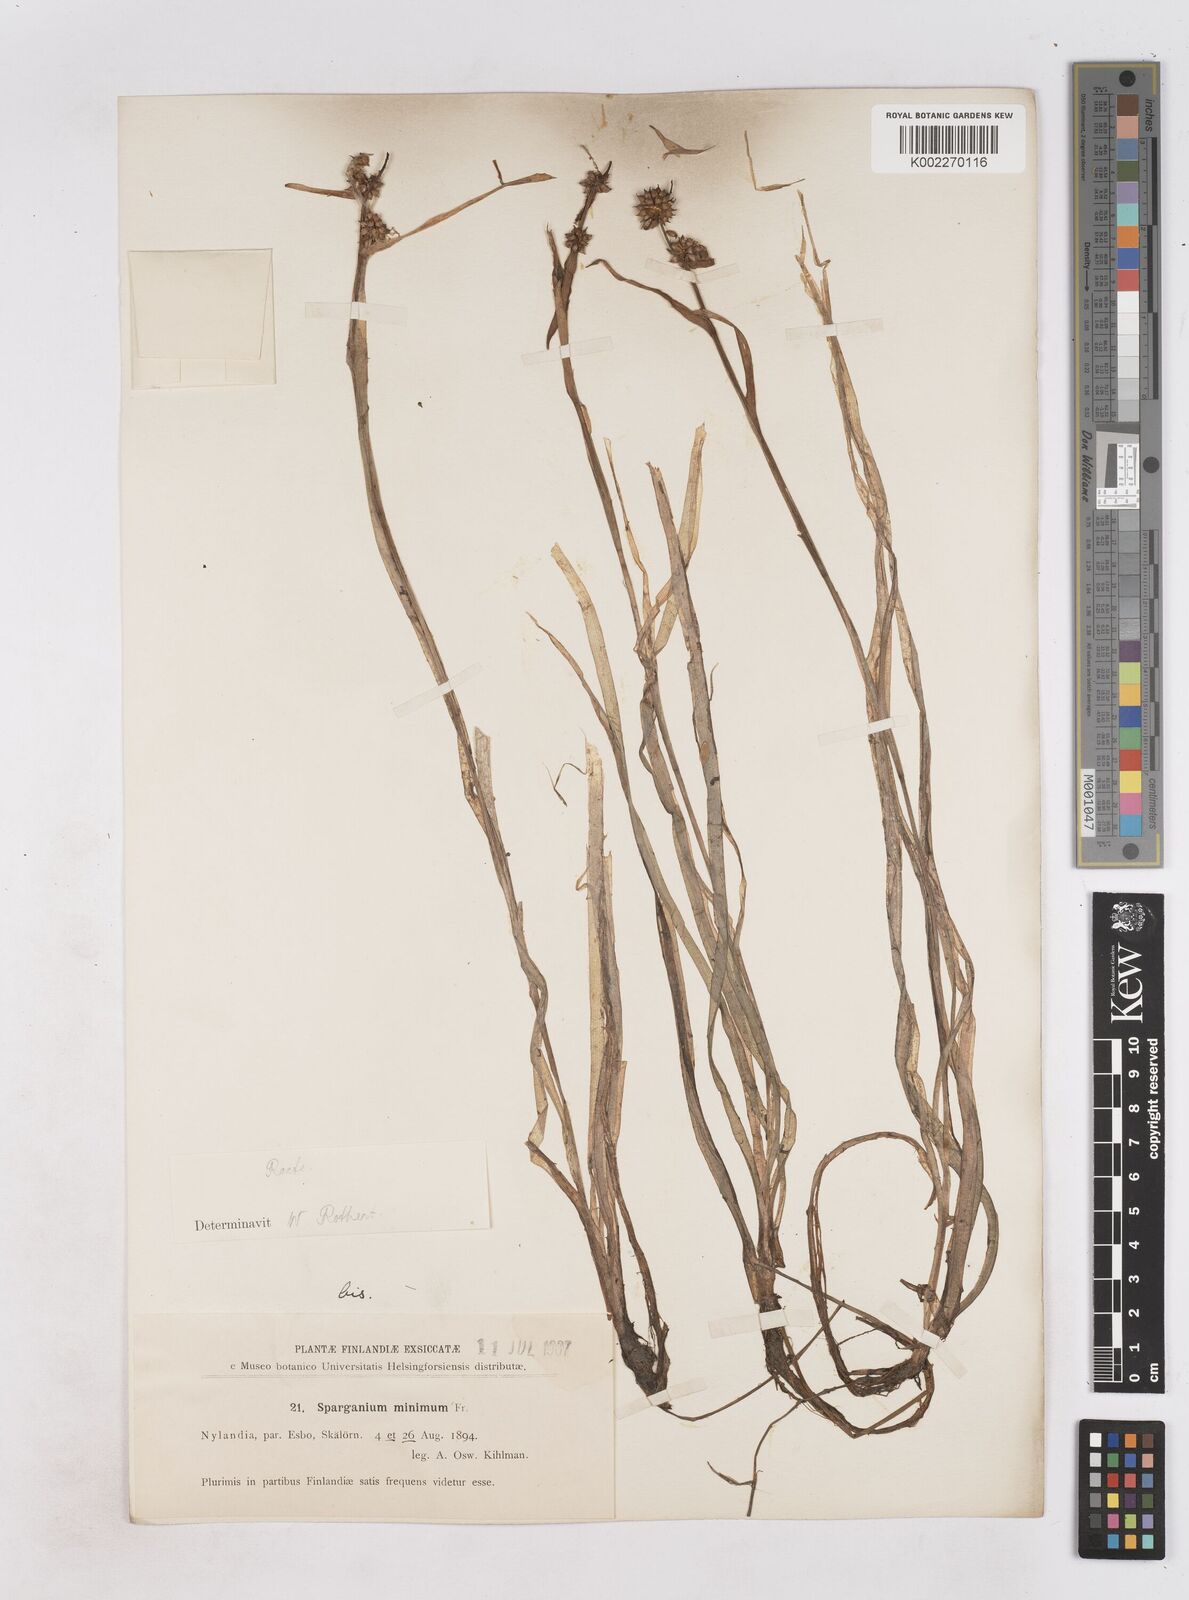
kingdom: Plantae
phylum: Tracheophyta
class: Liliopsida
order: Poales
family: Typhaceae
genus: Sparganium
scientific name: Sparganium natans
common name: Least bur-reed
